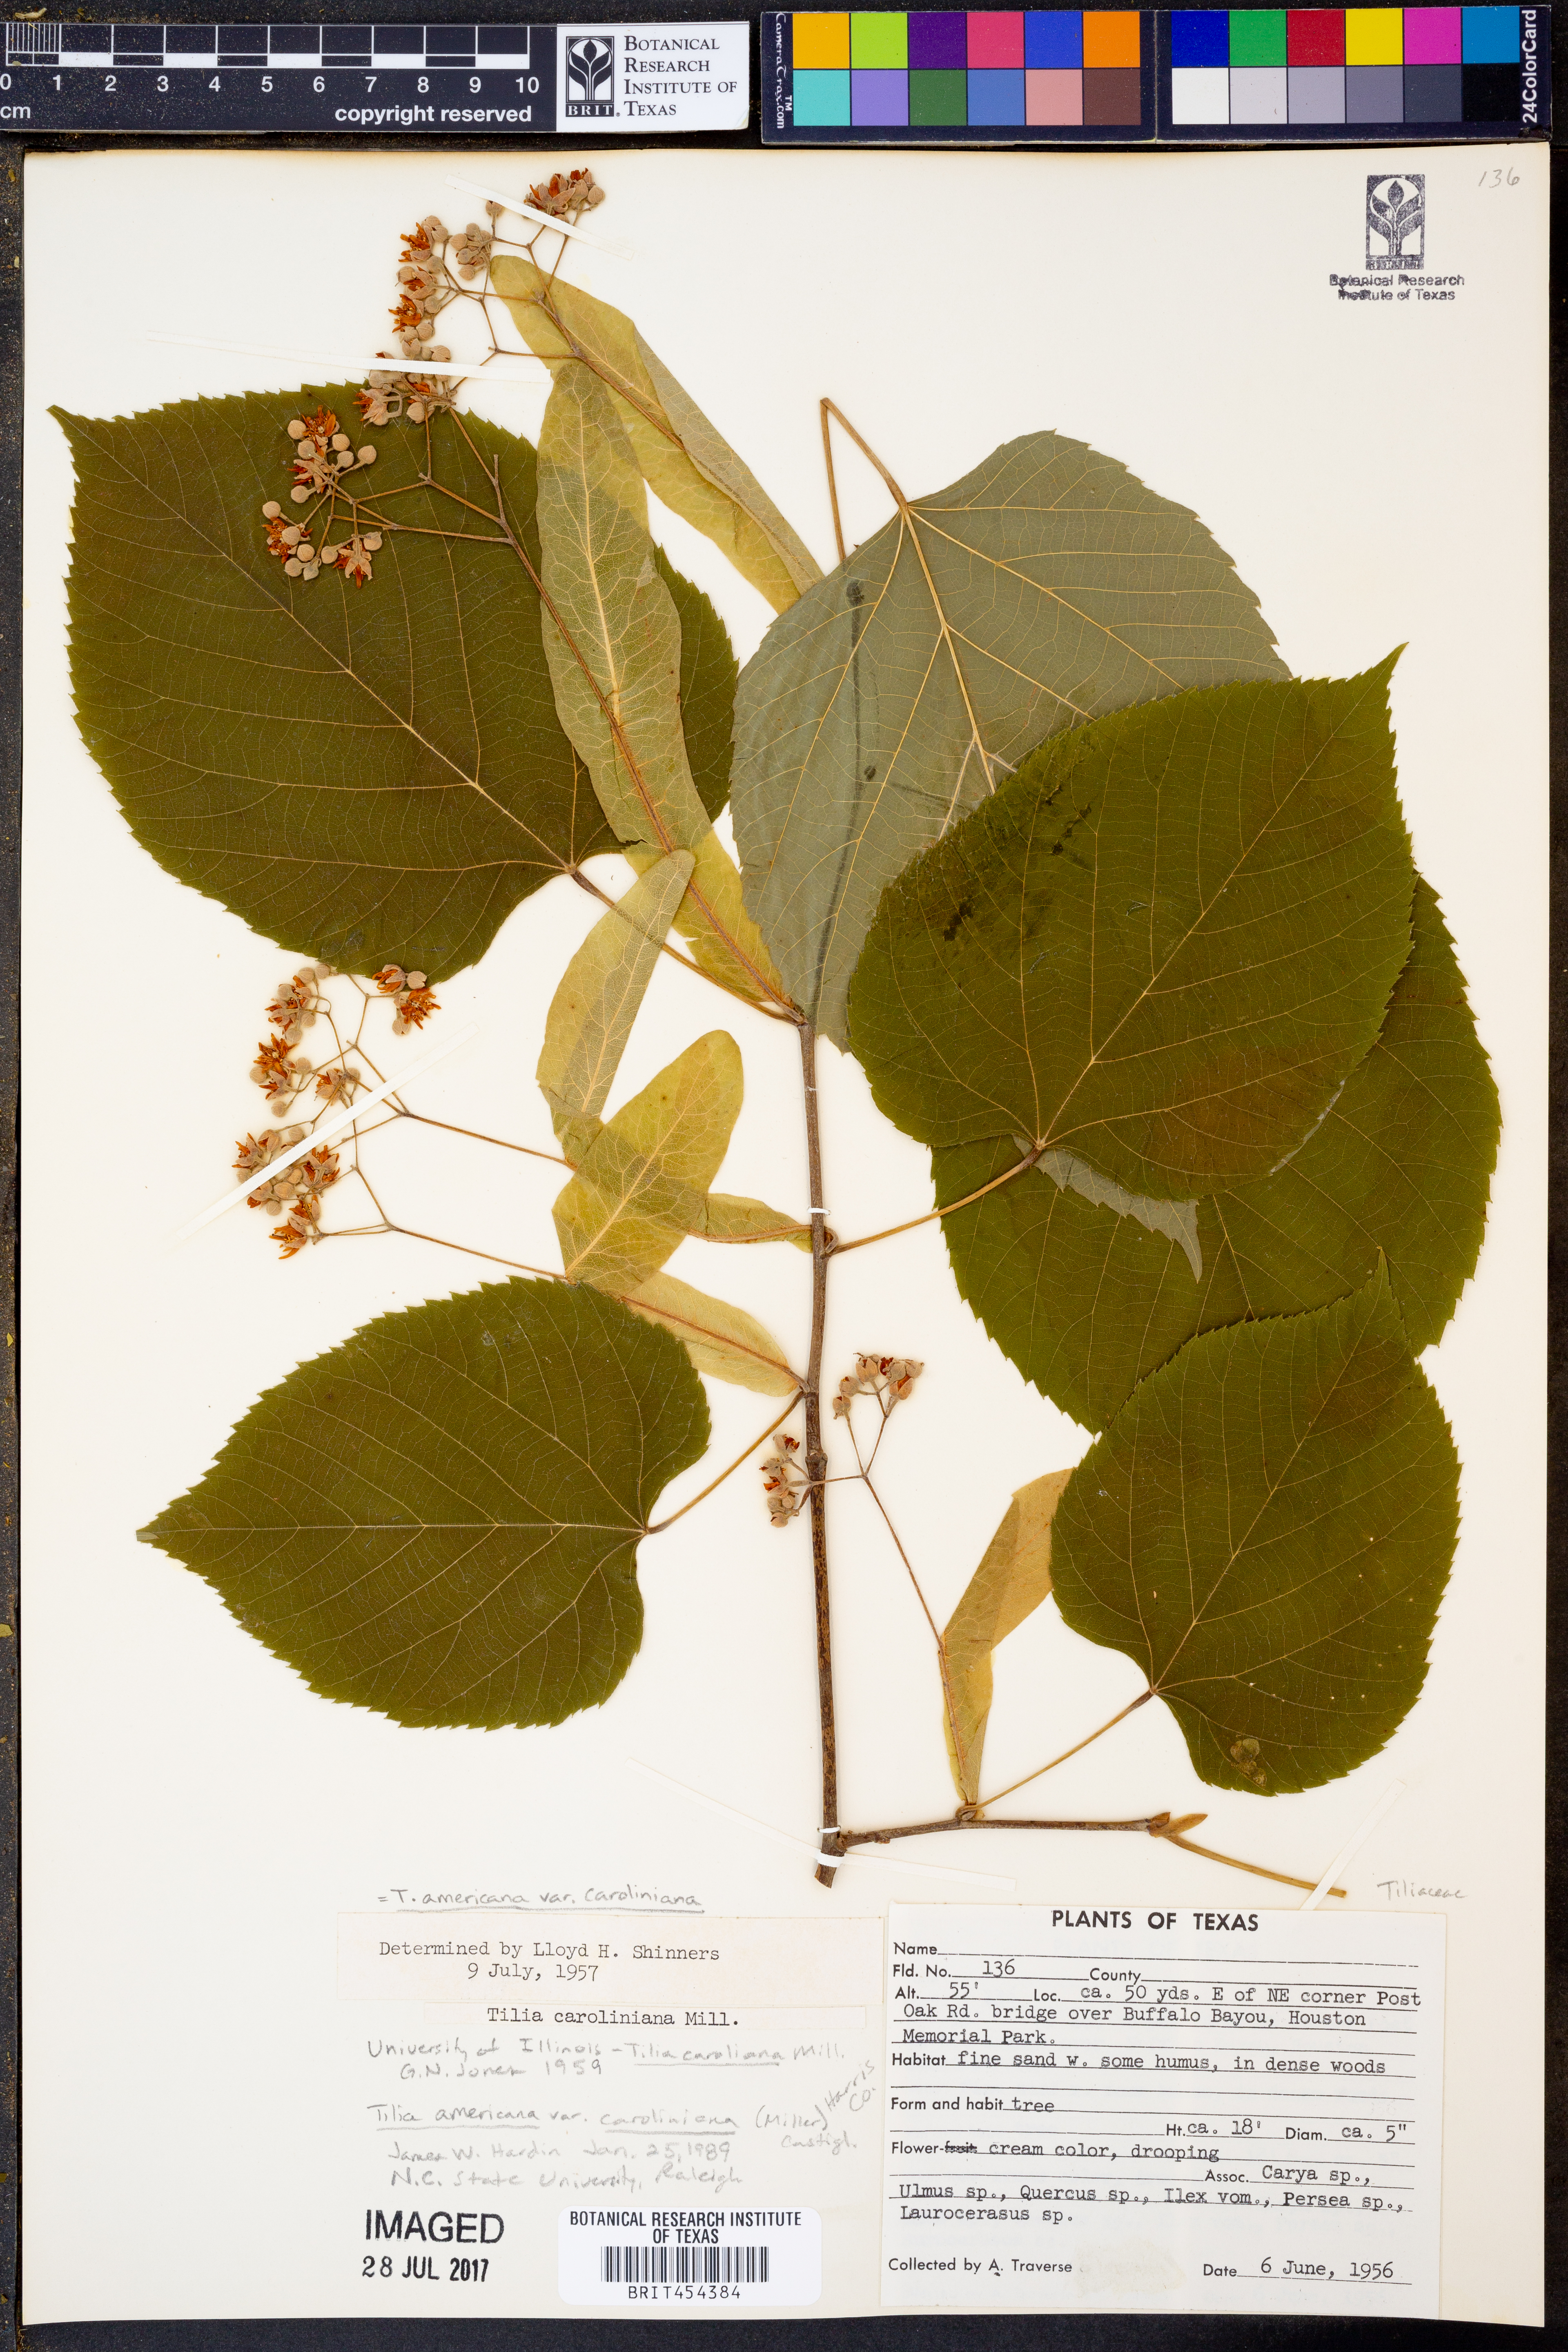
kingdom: Plantae
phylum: Tracheophyta
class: Magnoliopsida
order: Malvales
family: Malvaceae
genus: Tilia
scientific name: Tilia americana
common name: Basswood
